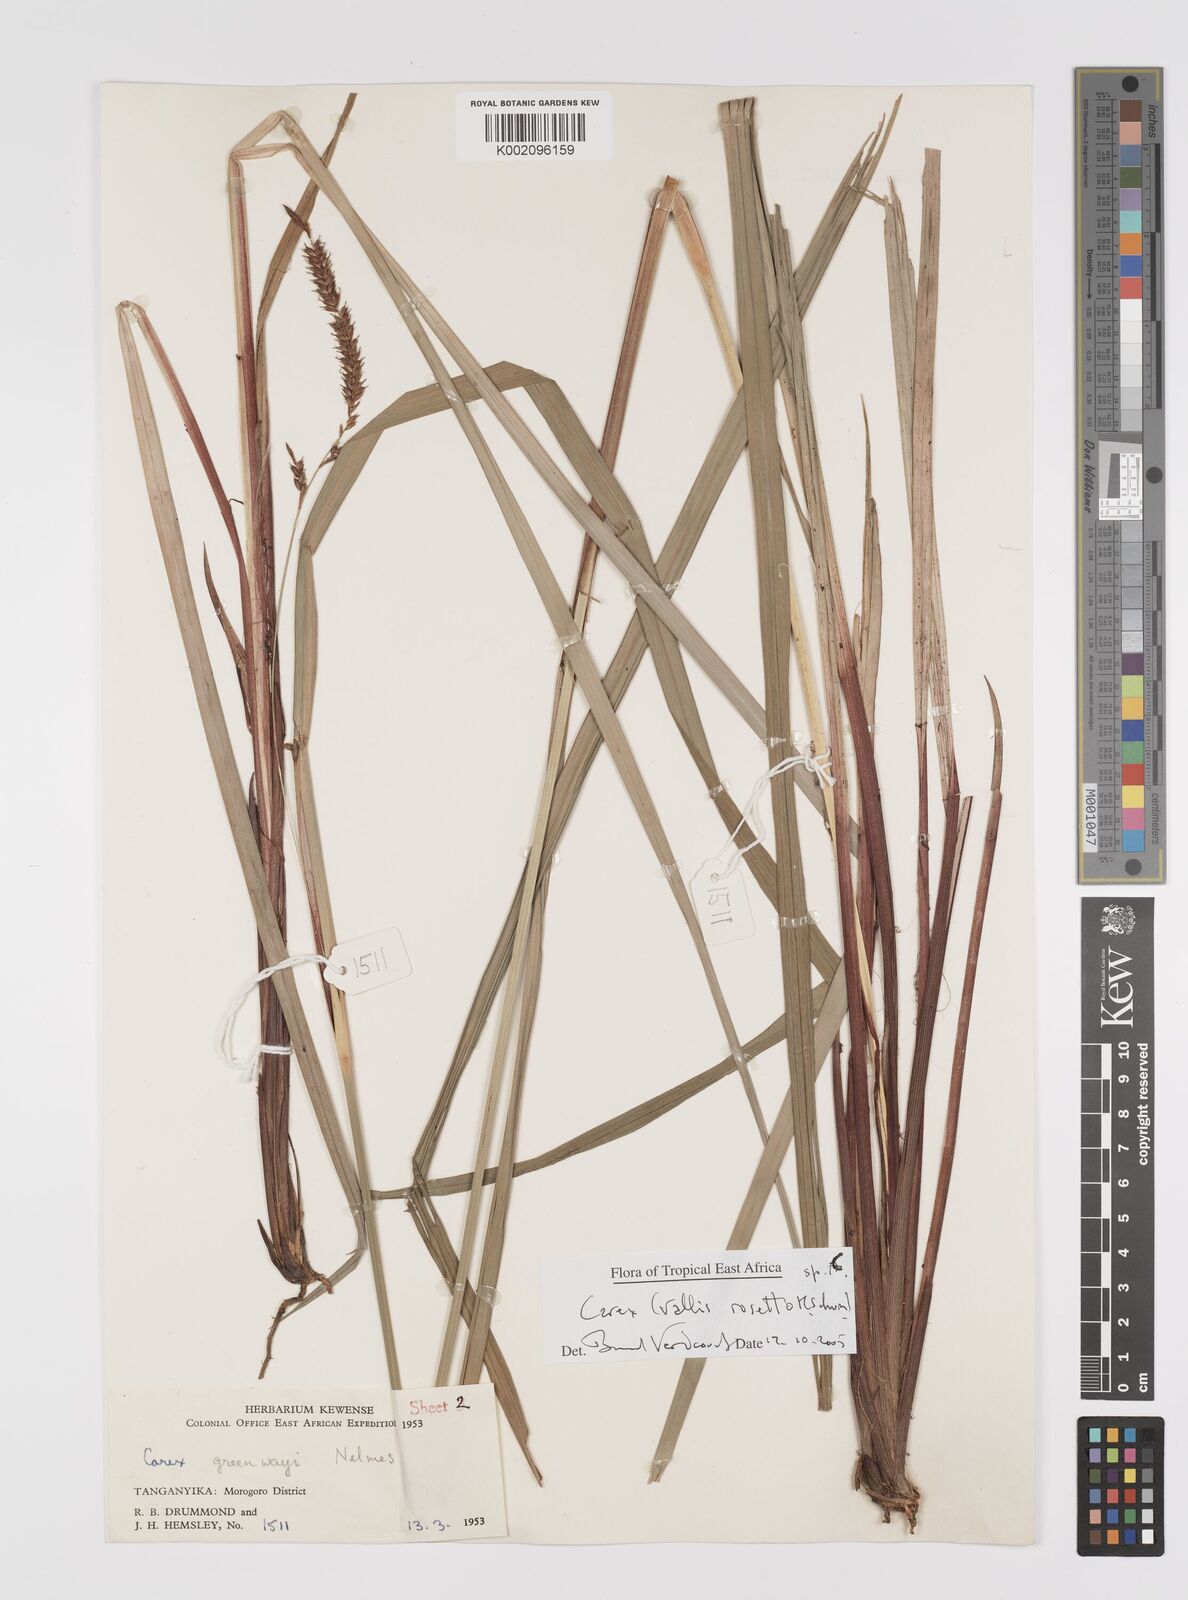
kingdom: Plantae
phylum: Tracheophyta
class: Liliopsida
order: Poales
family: Cyperaceae
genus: Carex
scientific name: Carex
